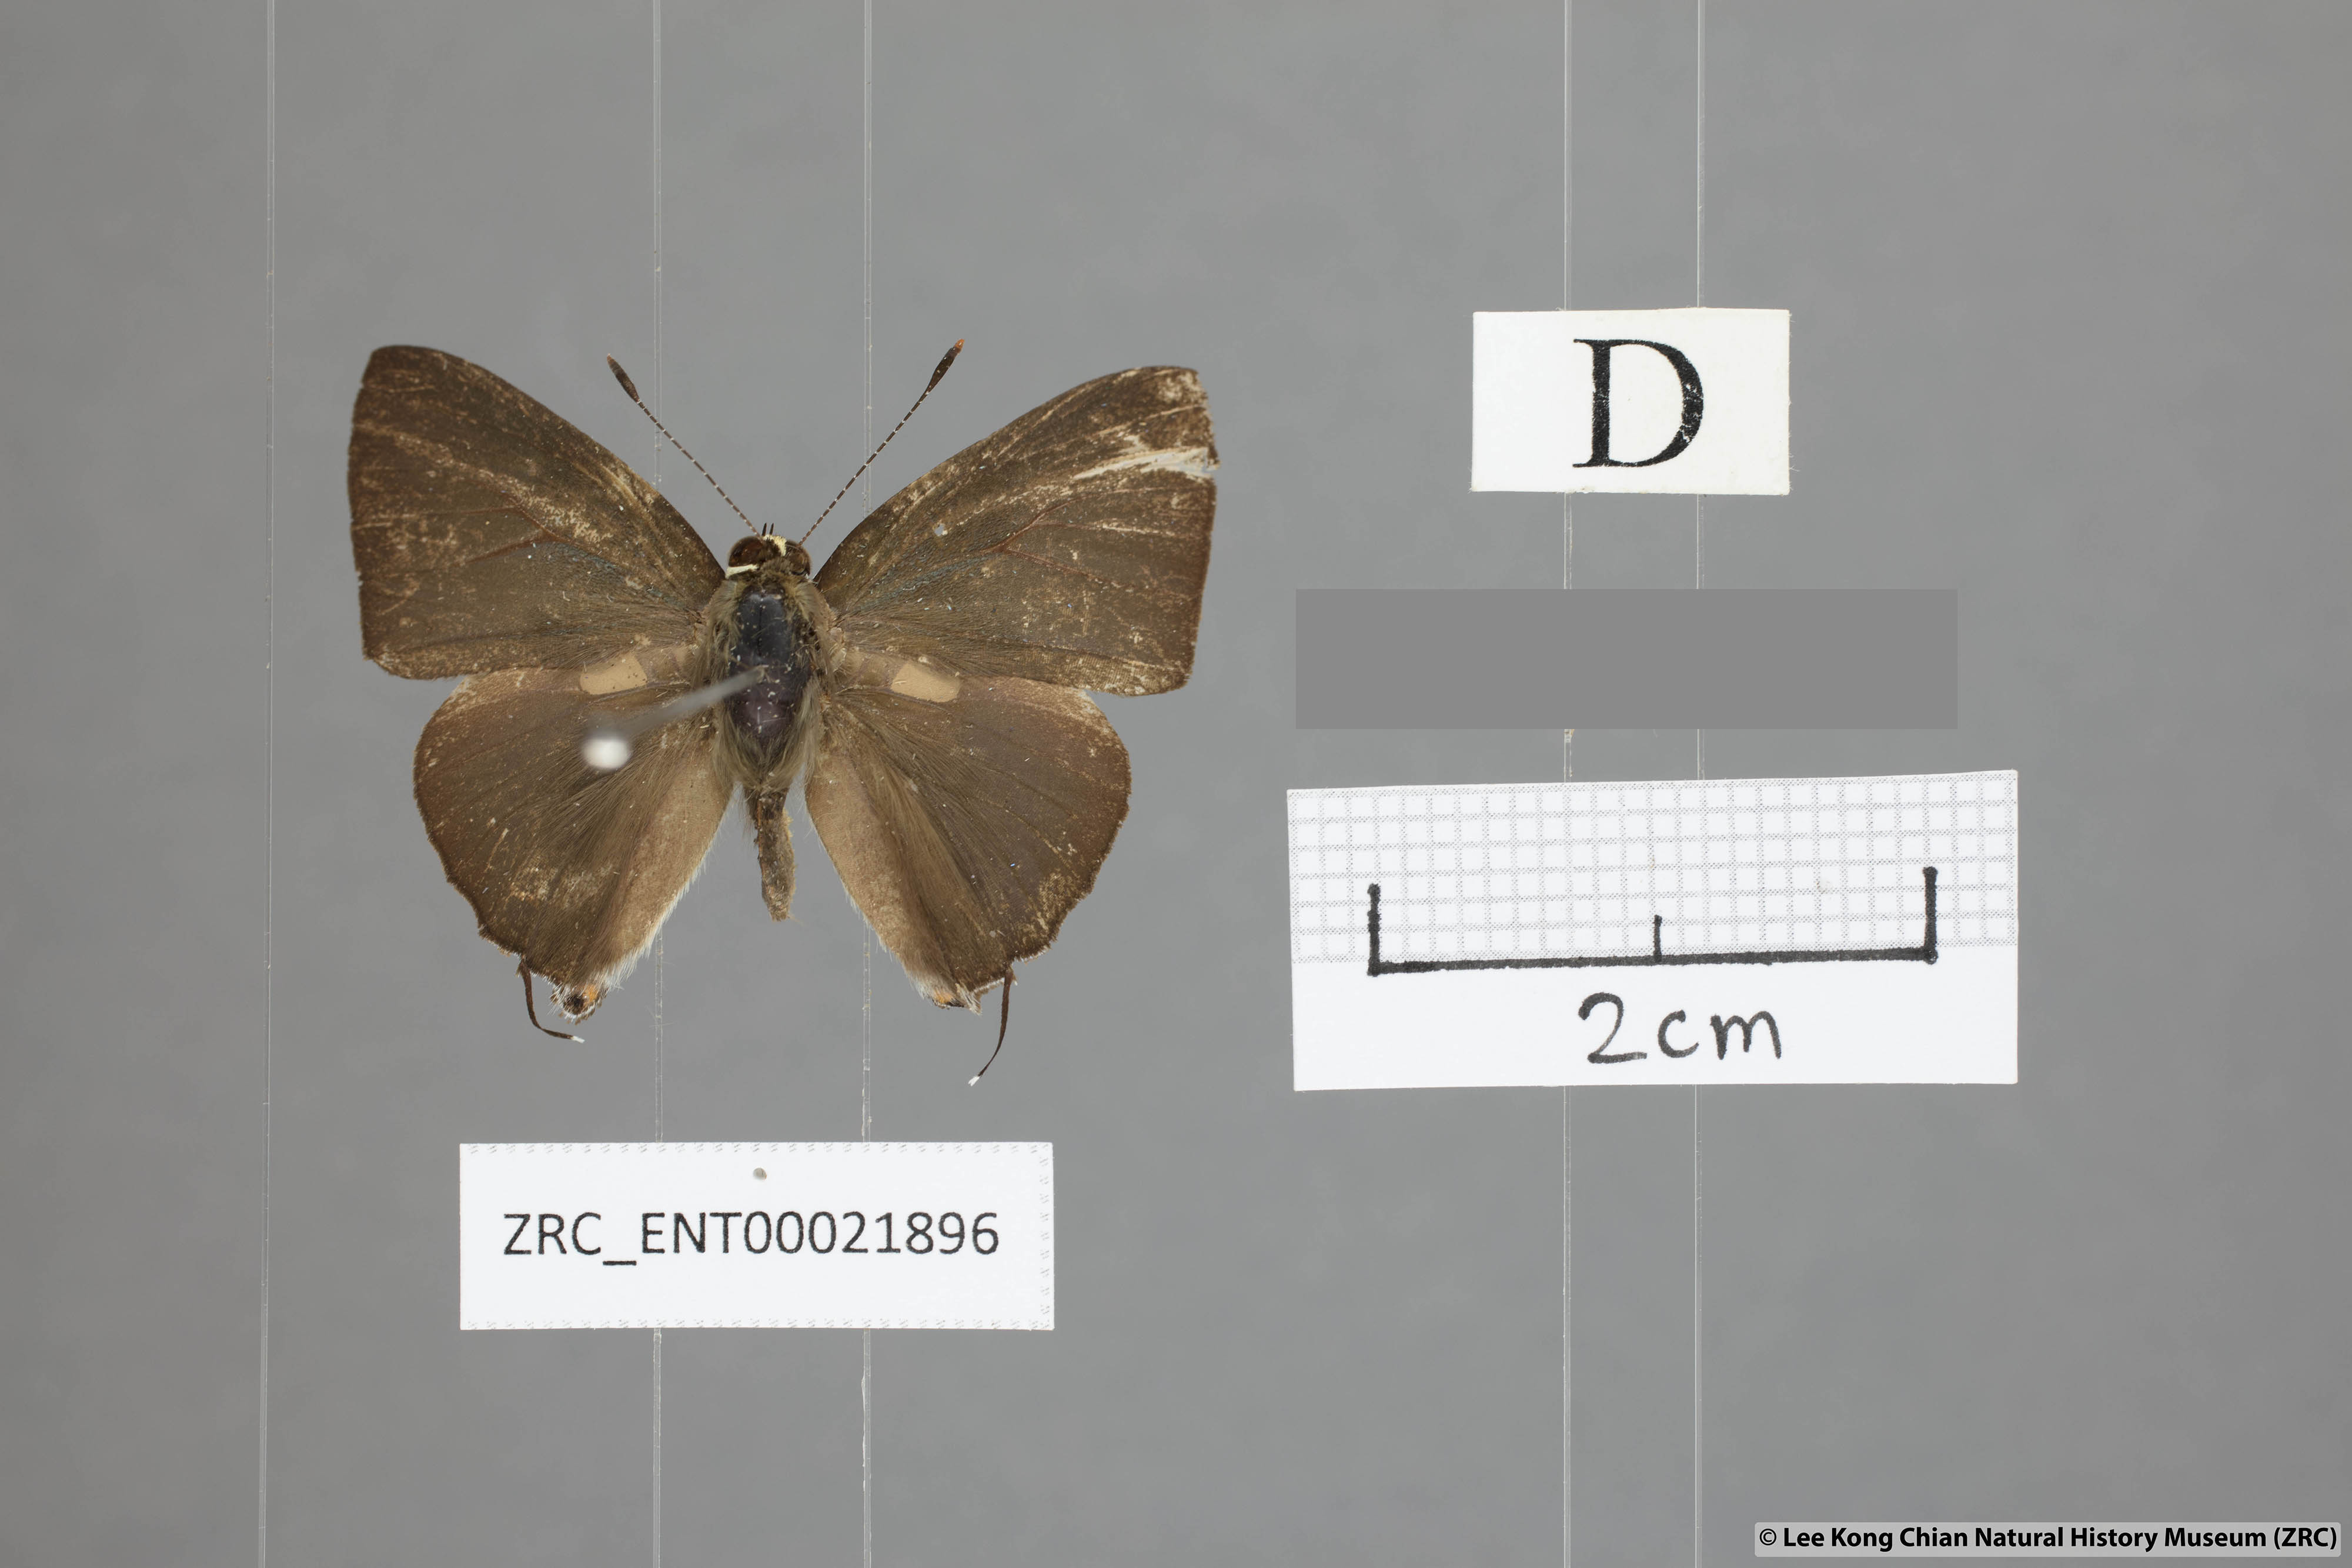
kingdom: Animalia
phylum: Arthropoda
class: Insecta
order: Lepidoptera
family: Lycaenidae
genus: Rapala
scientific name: Rapala scintilla
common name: Scarce slate flash
